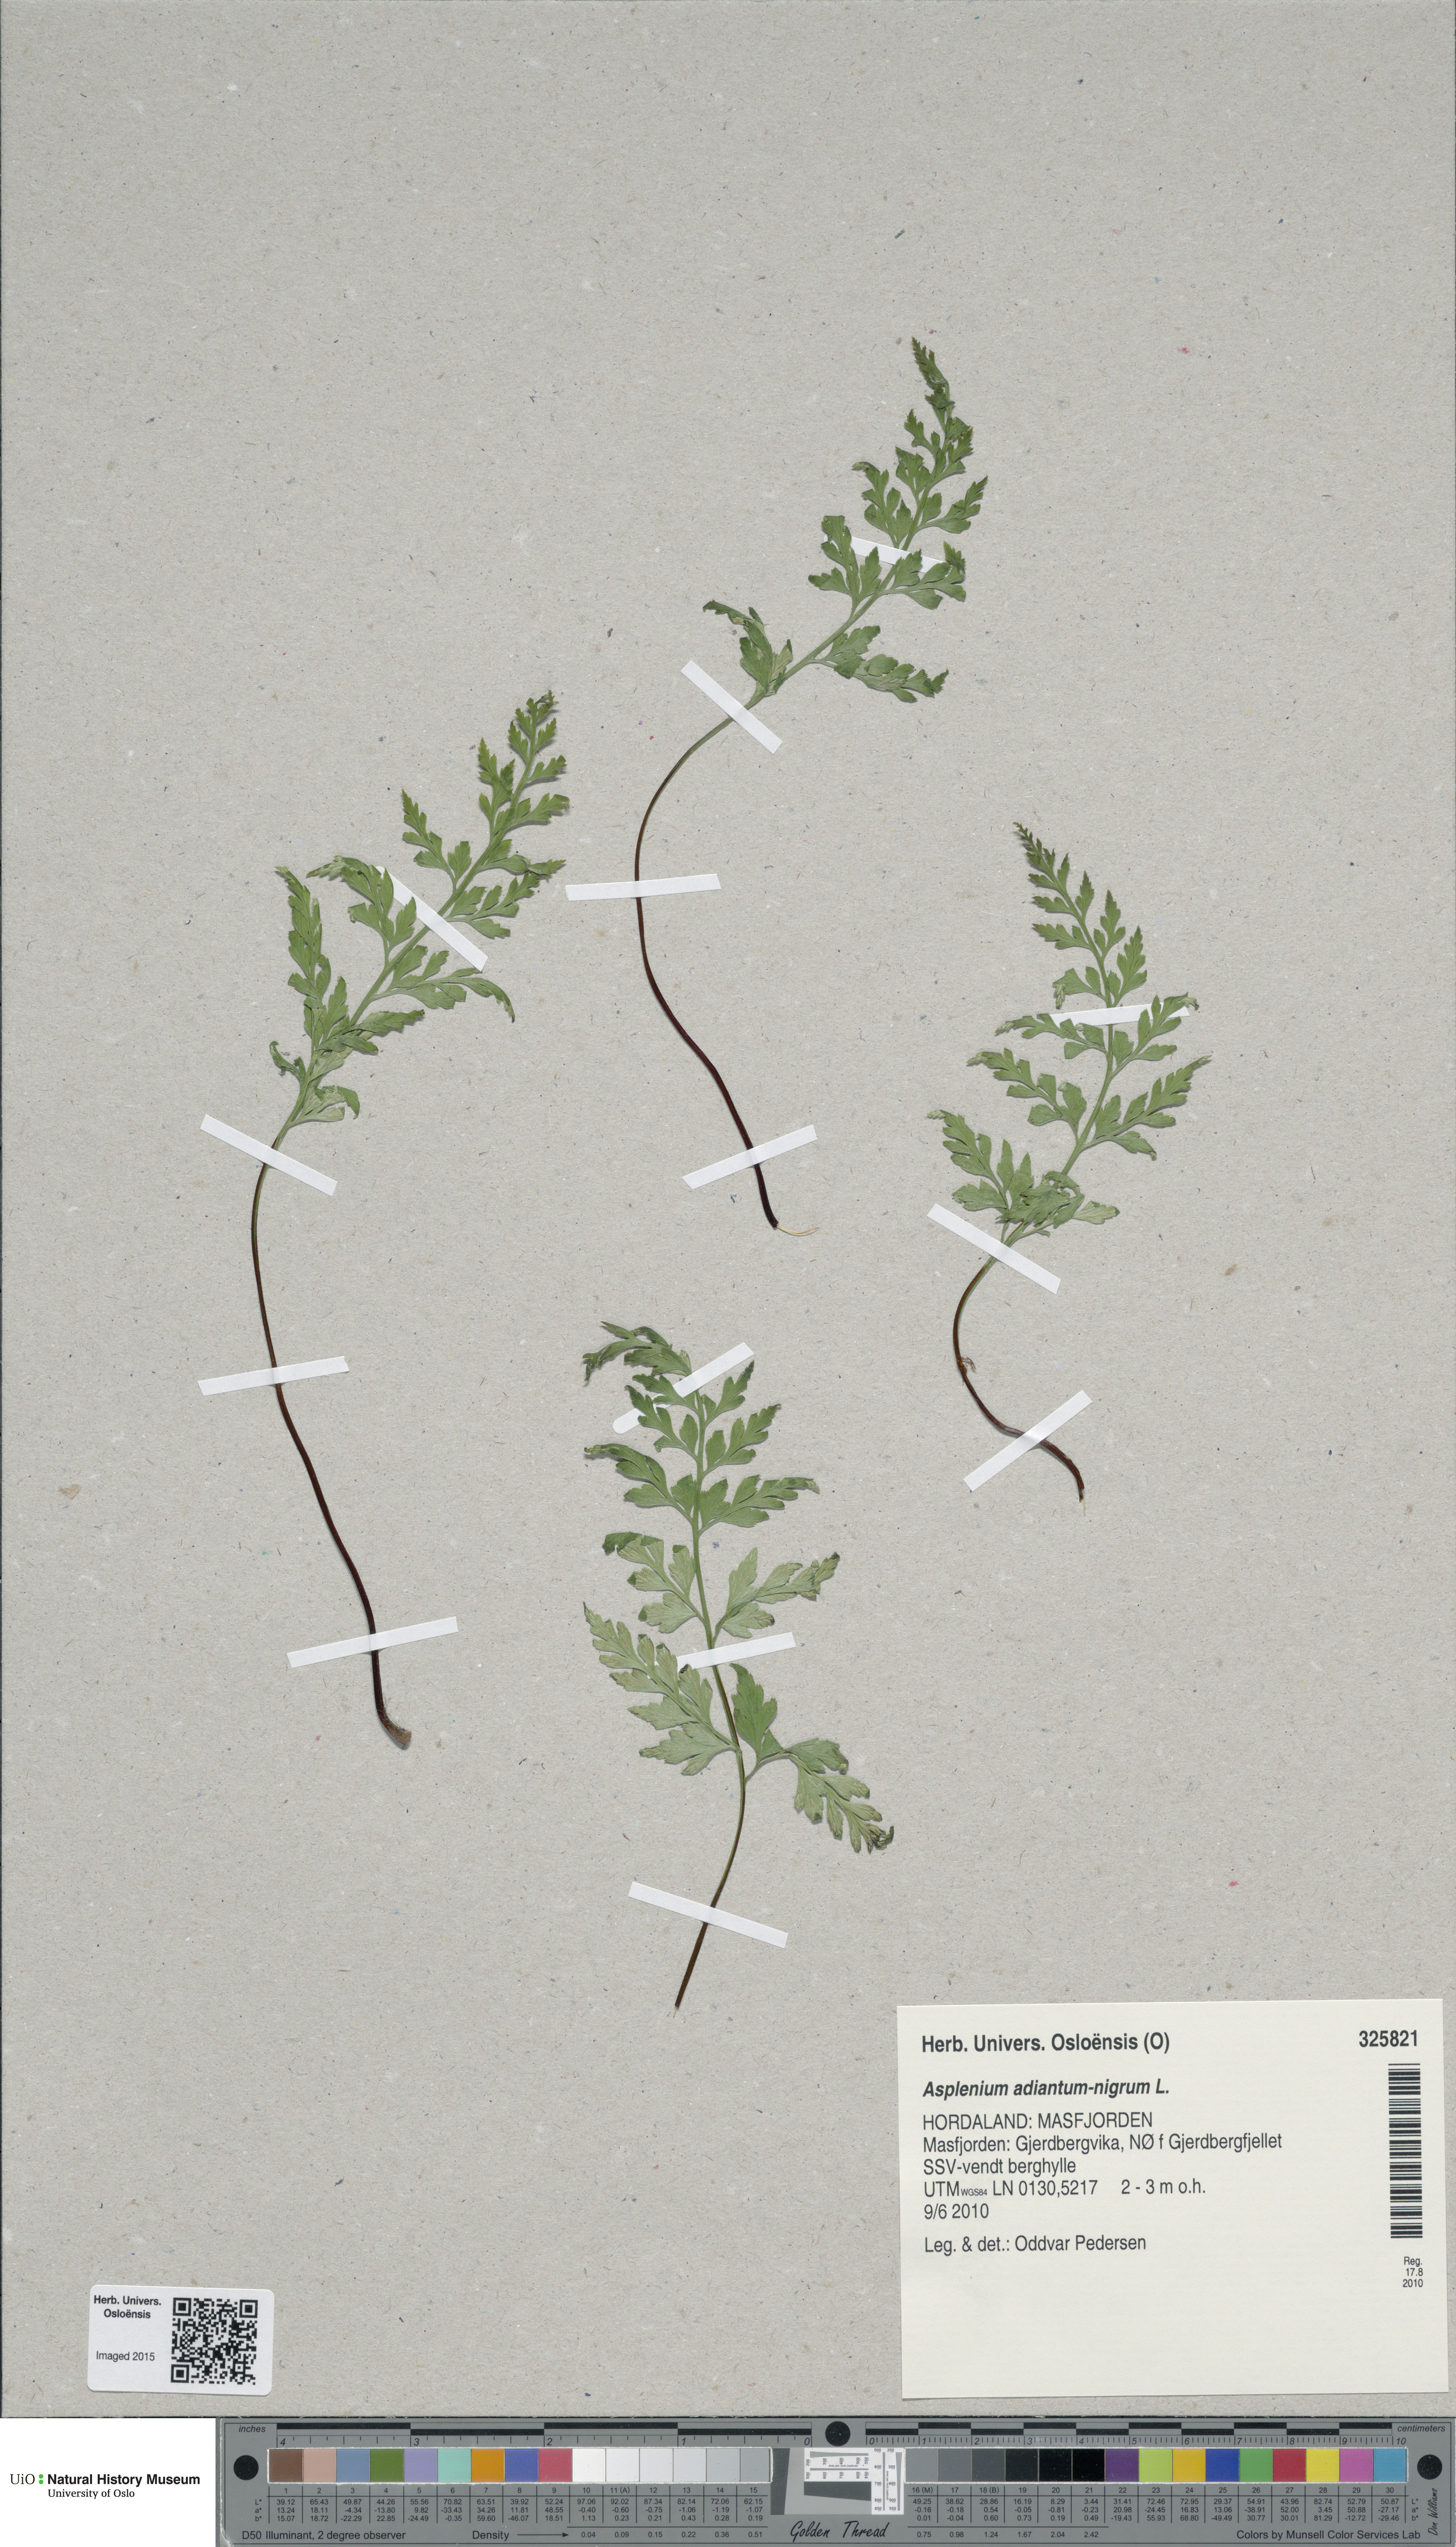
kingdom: Plantae
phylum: Tracheophyta
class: Polypodiopsida
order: Polypodiales
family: Aspleniaceae
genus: Asplenium
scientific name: Asplenium adiantum-nigrum
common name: Black spleenwort
